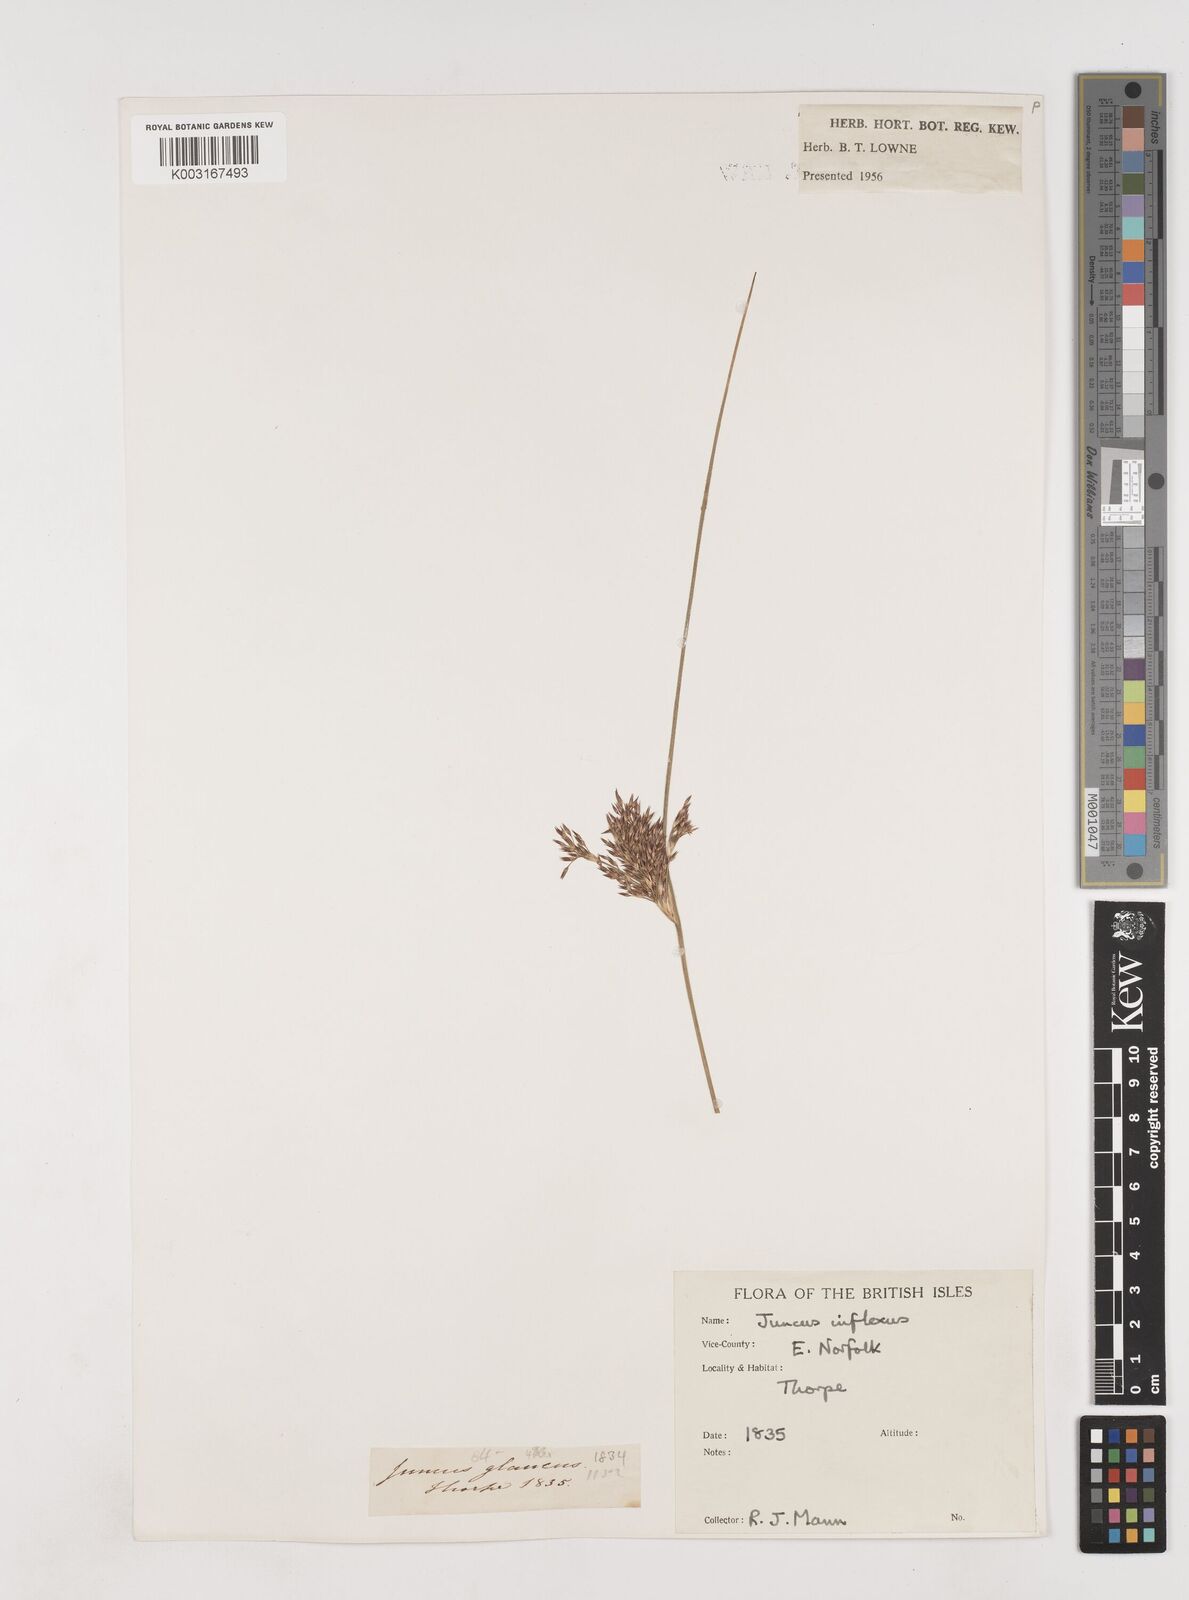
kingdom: Plantae
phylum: Tracheophyta
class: Liliopsida
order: Poales
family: Juncaceae
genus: Juncus
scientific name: Juncus inflexus
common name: Hard rush
